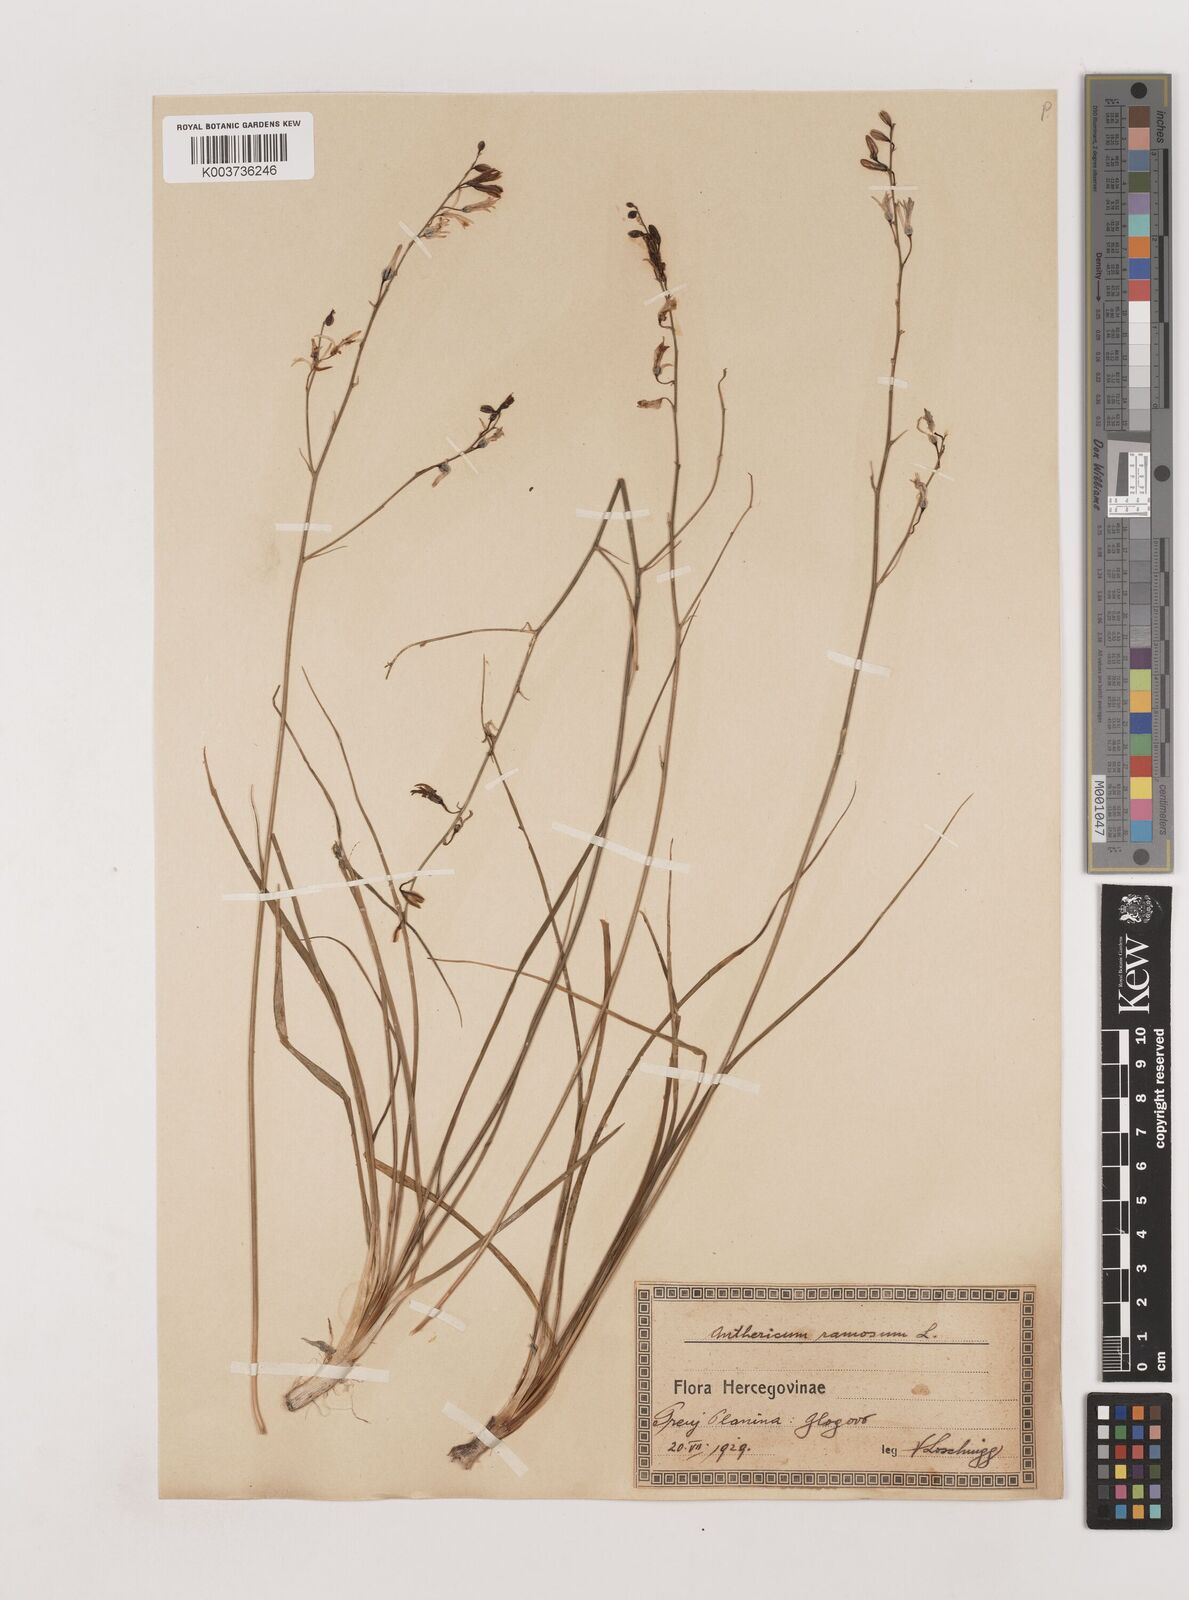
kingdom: Plantae
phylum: Tracheophyta
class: Liliopsida
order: Asparagales
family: Asparagaceae
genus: Anthericum
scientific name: Anthericum ramosum
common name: Branched st. bernard's-lily
